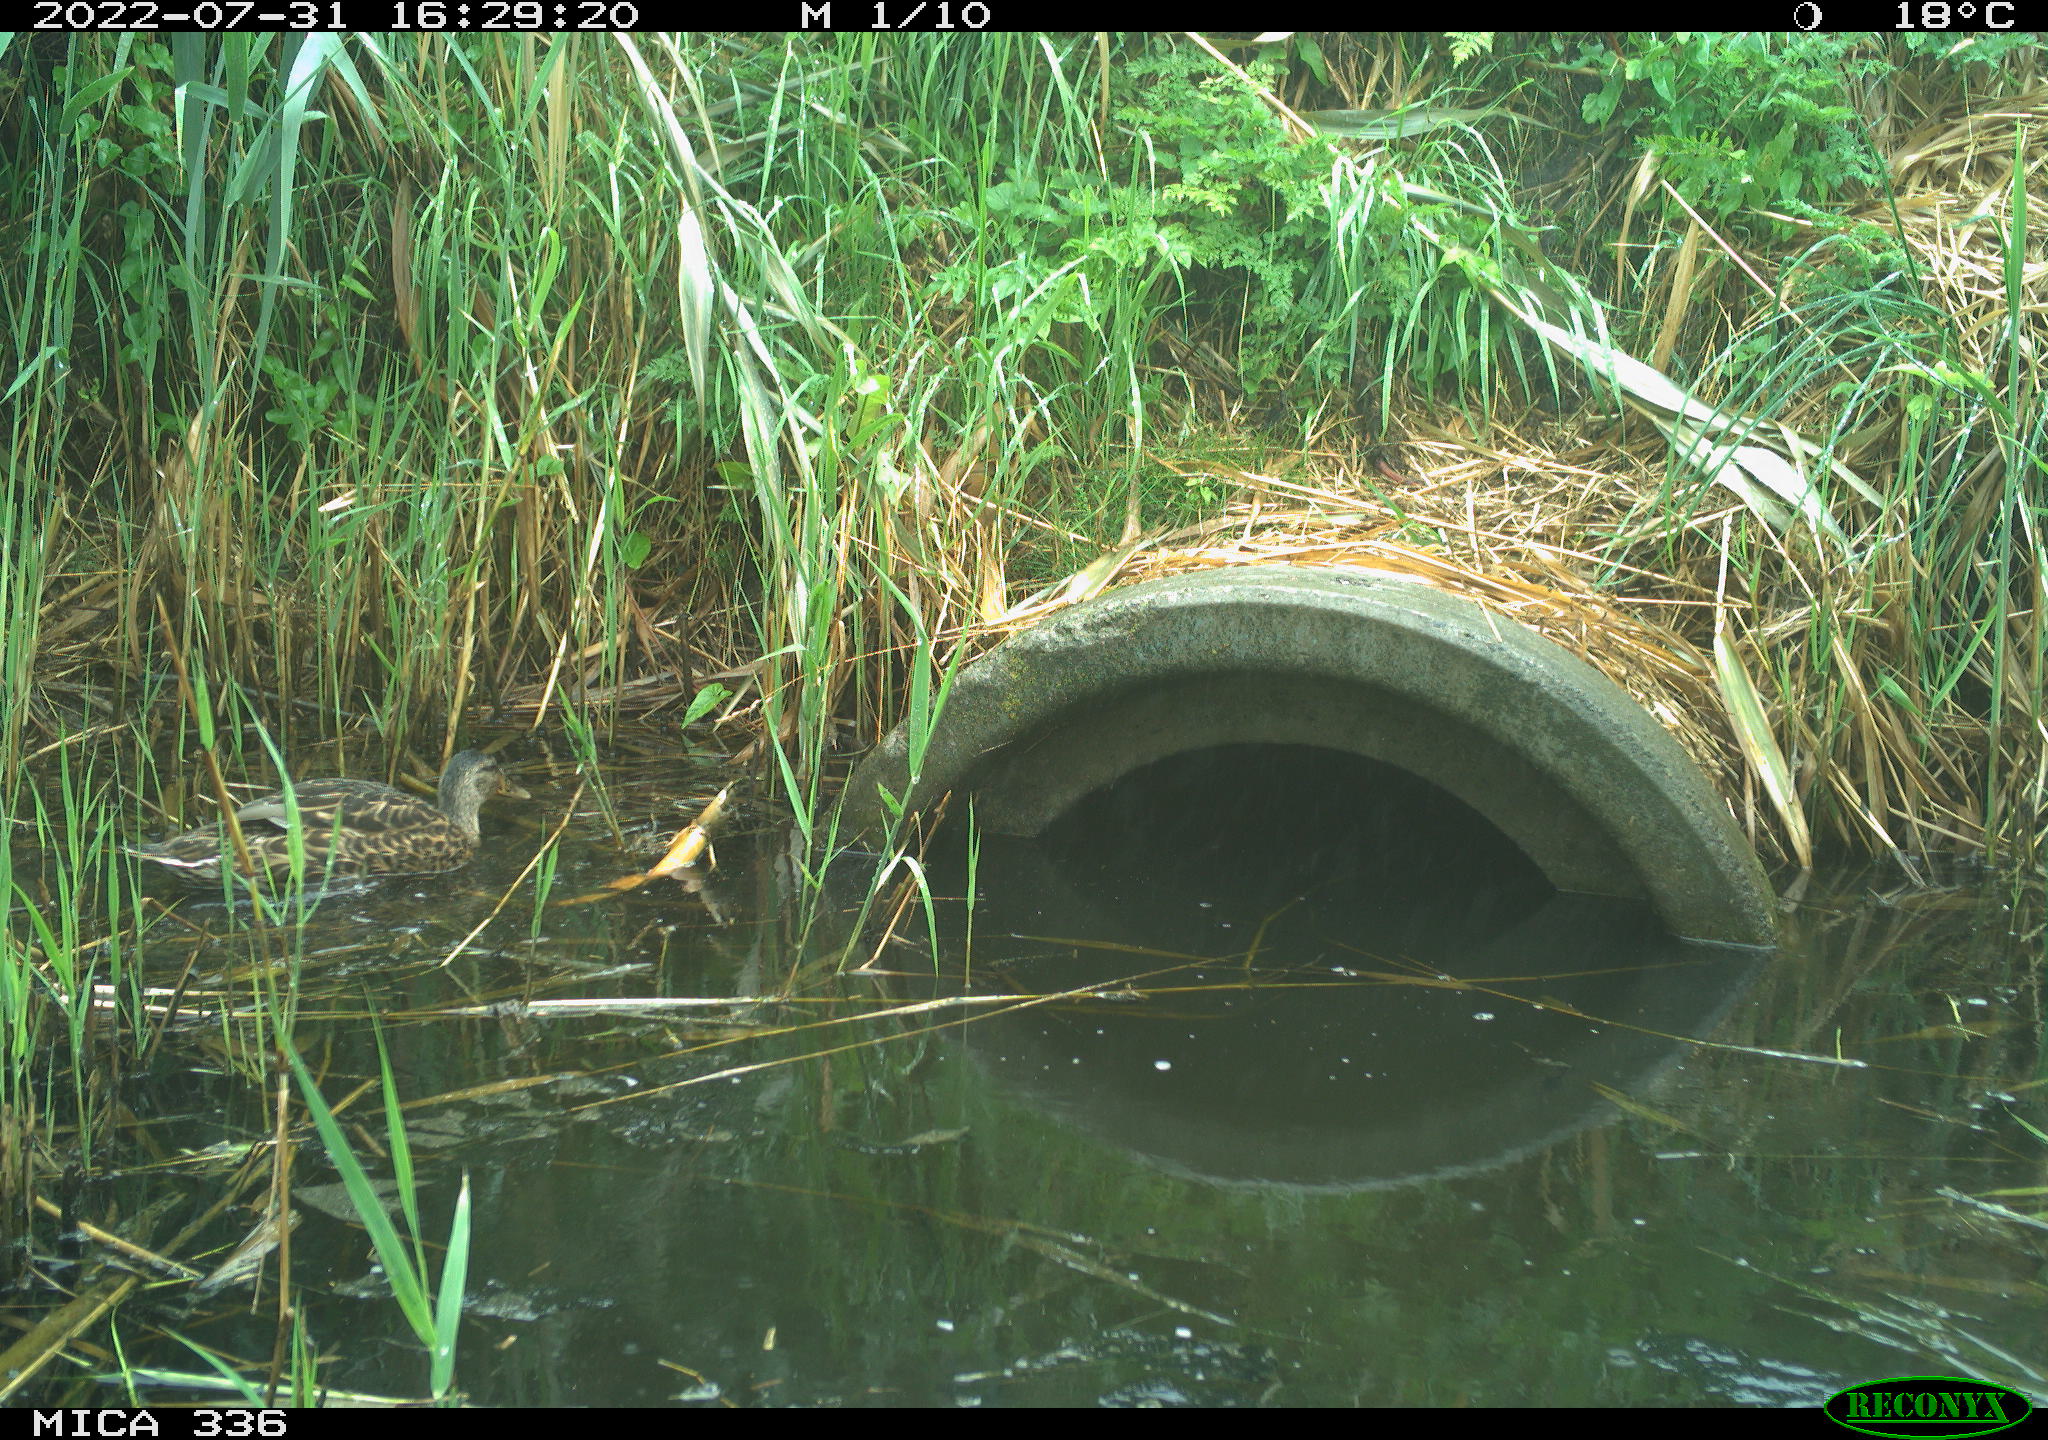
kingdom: Animalia
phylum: Chordata
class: Aves
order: Anseriformes
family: Anatidae
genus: Mareca
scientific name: Mareca strepera
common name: Gadwall
